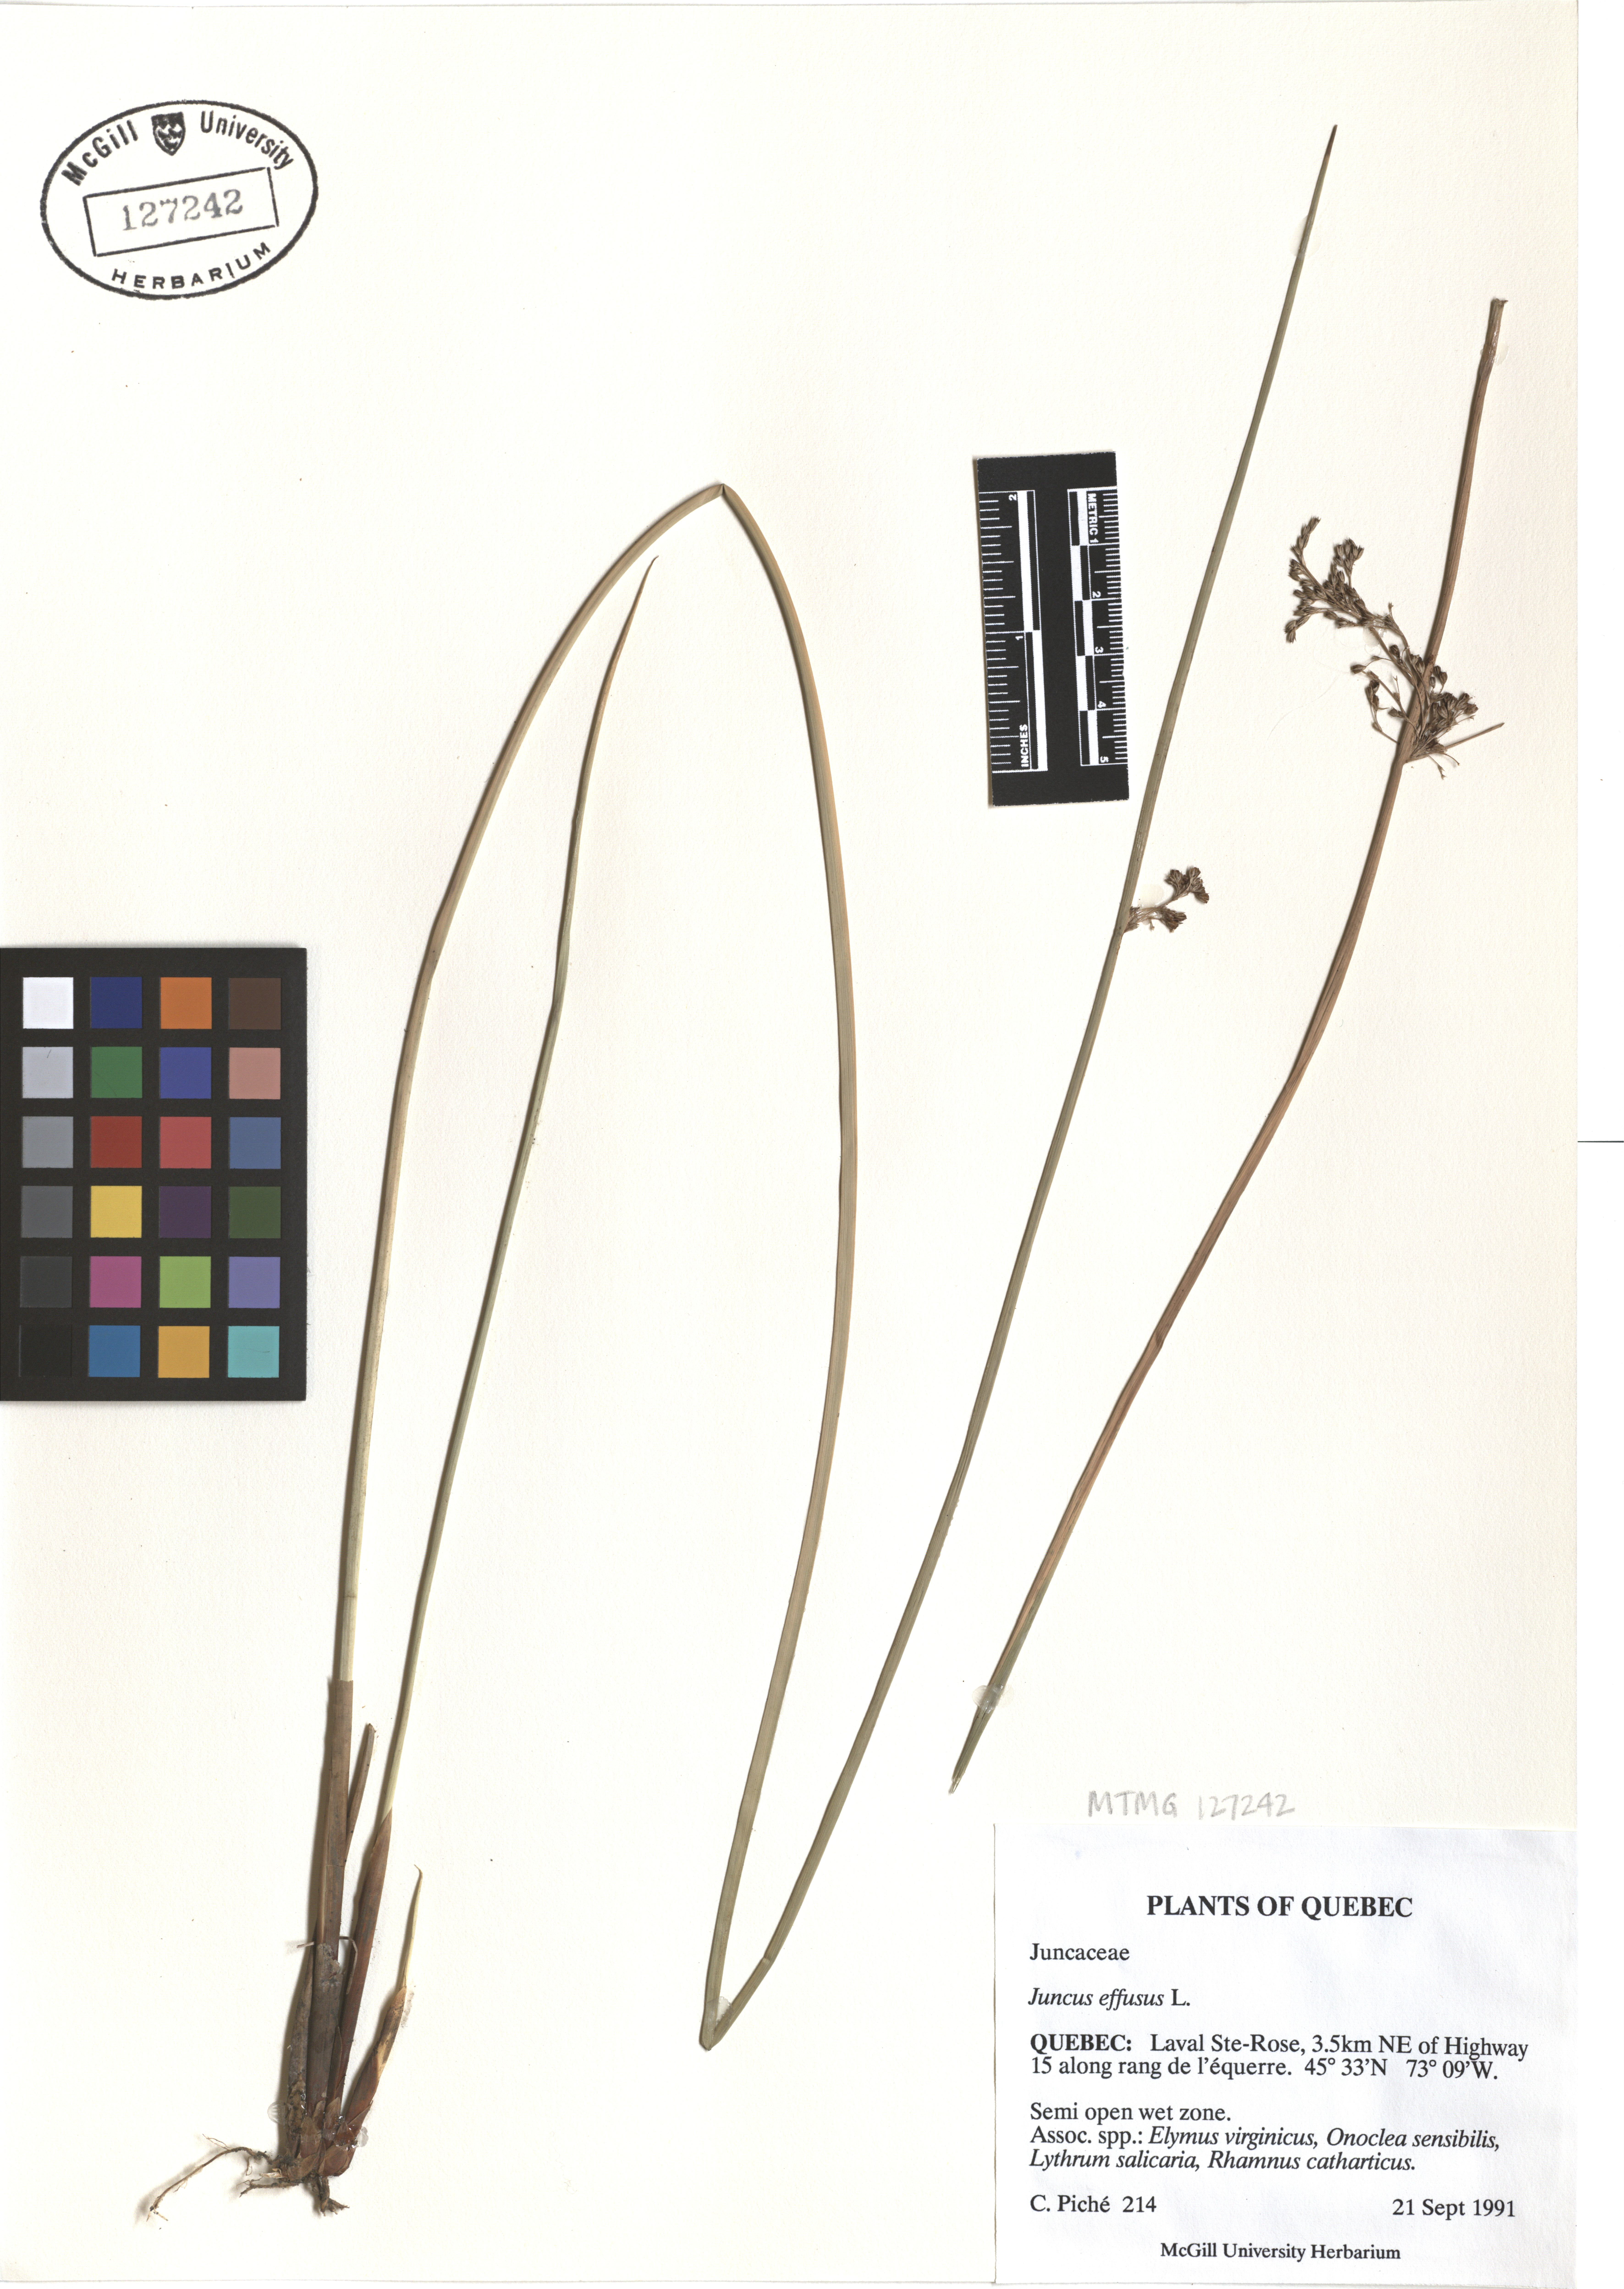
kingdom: Plantae
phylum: Tracheophyta
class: Liliopsida
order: Poales
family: Juncaceae
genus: Juncus
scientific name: Juncus effusus
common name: Soft rush
